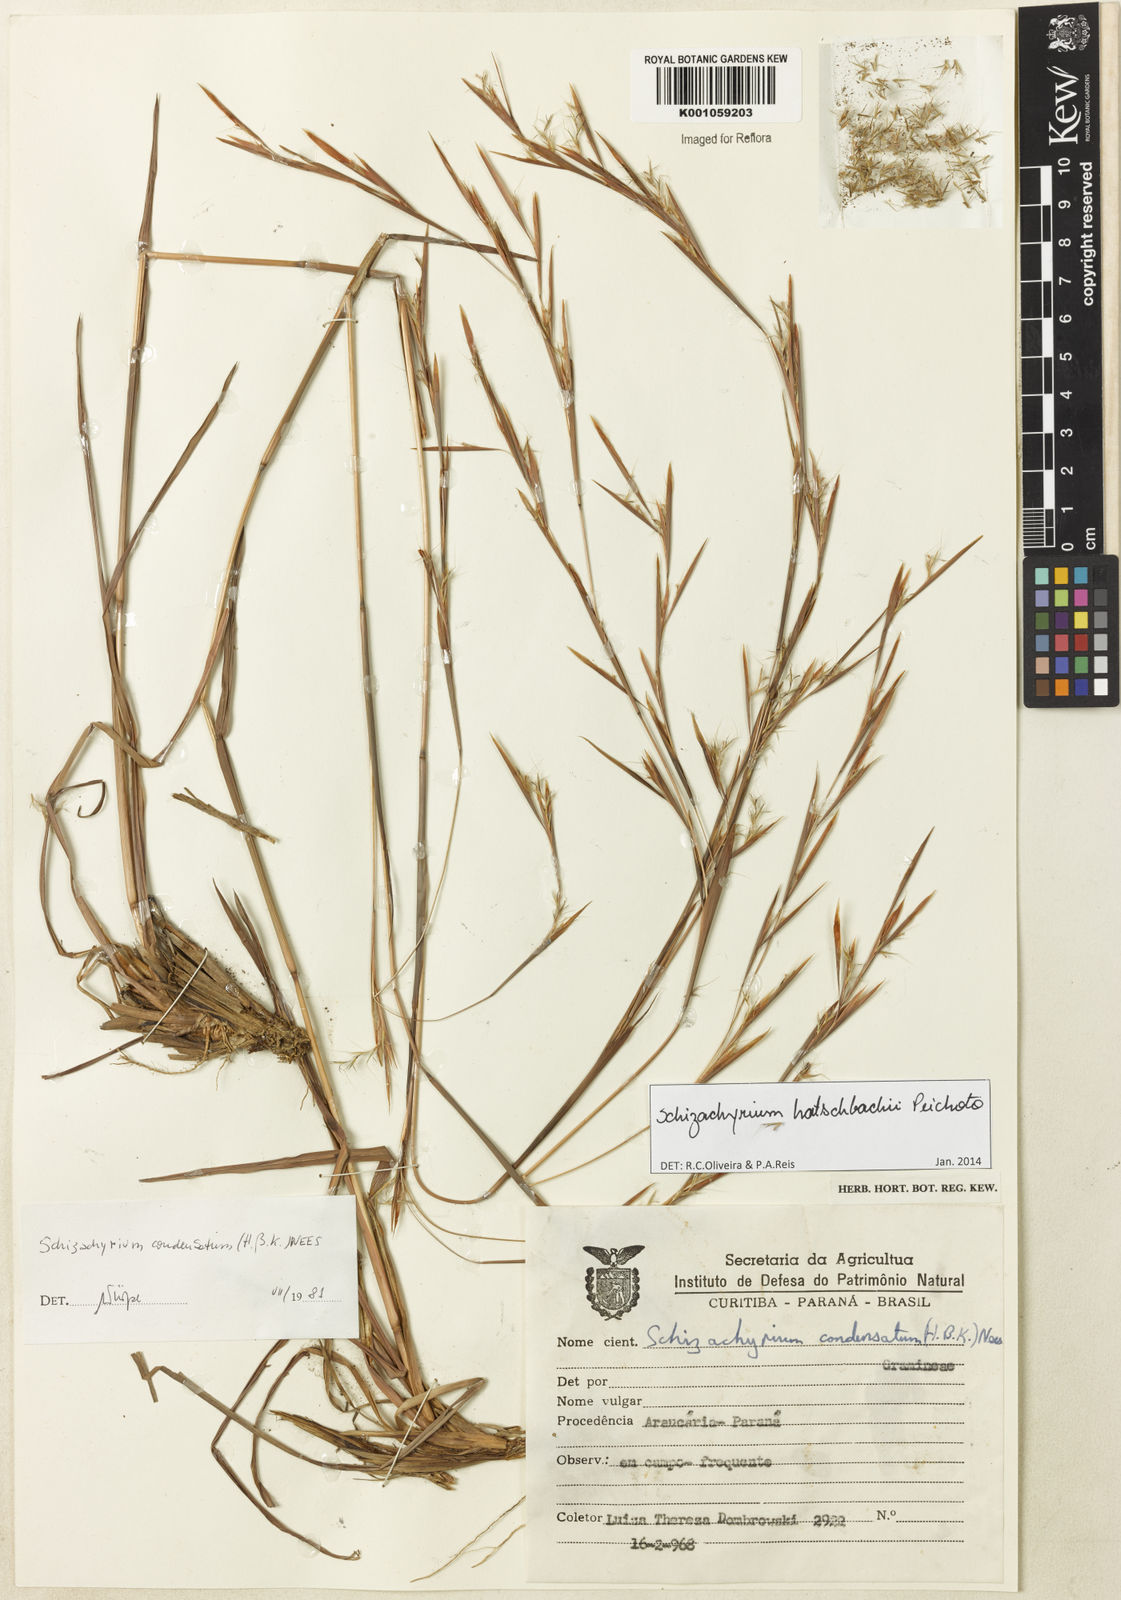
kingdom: Plantae
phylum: Tracheophyta
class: Liliopsida
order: Poales
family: Poaceae
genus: Schizachyrium
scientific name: Schizachyrium hatschbachii
